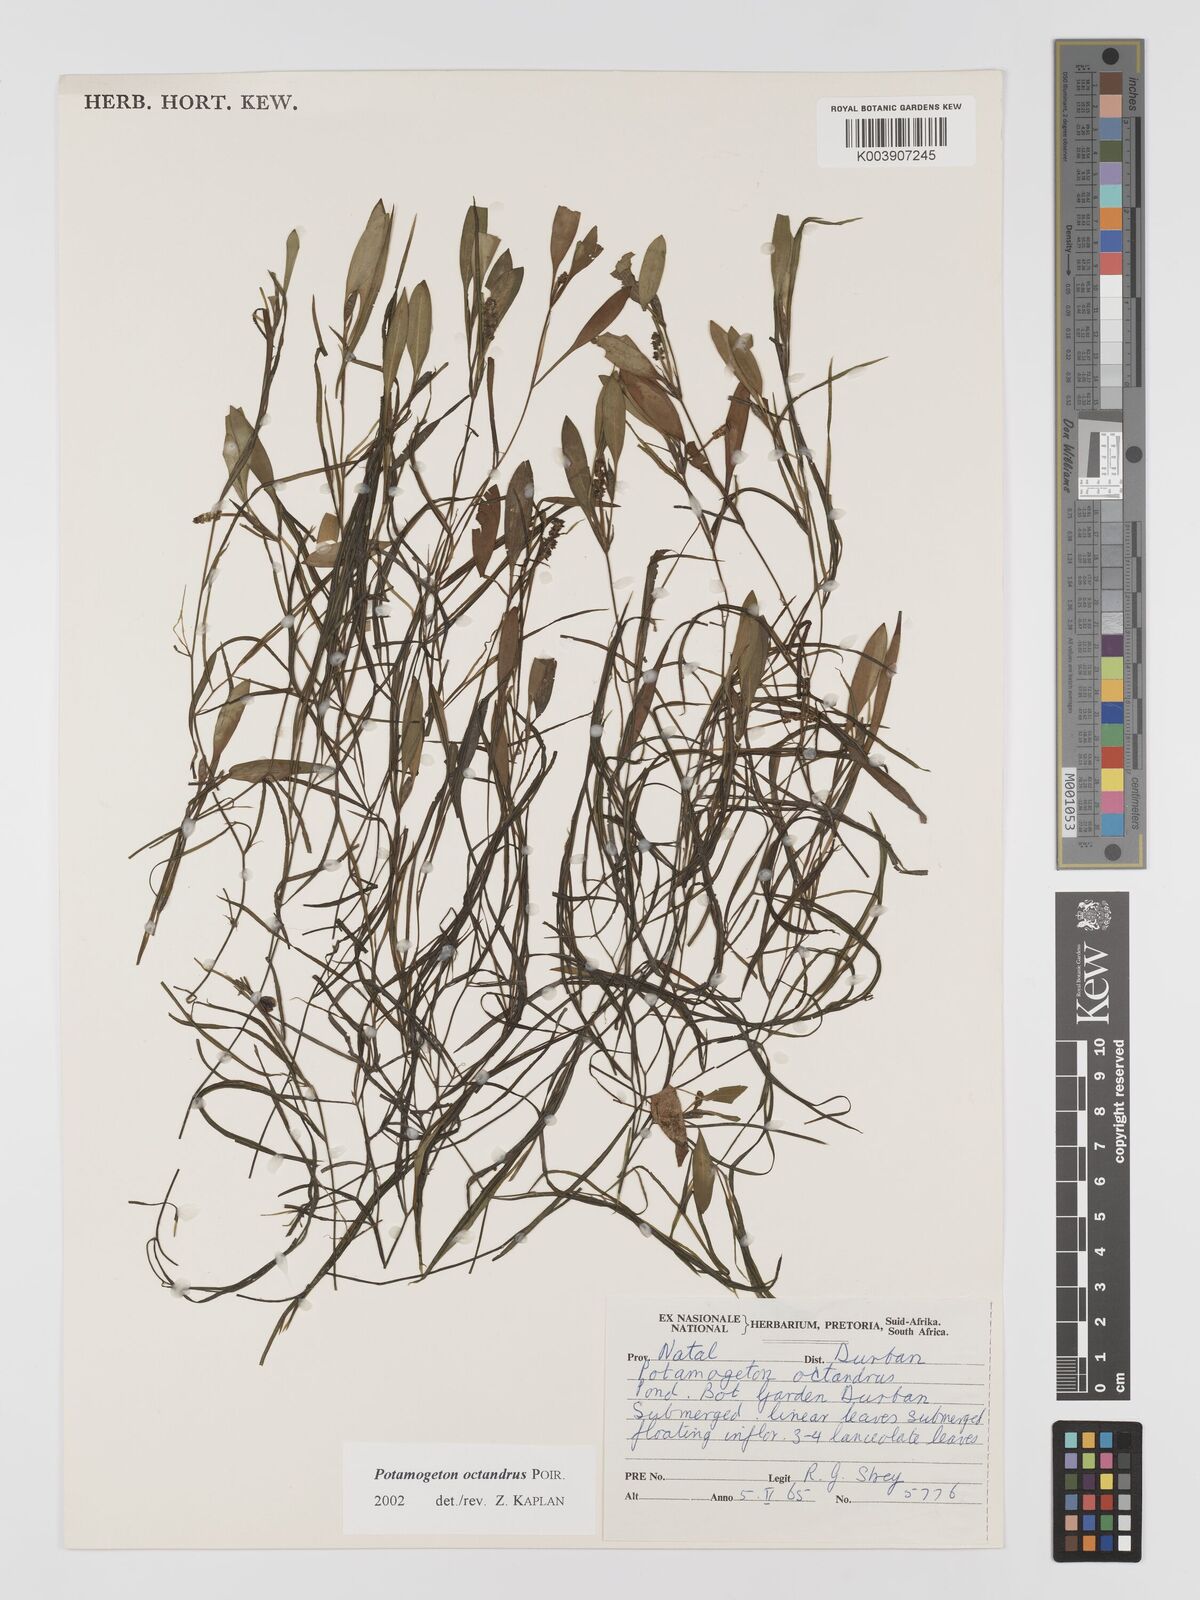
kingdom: Plantae
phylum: Tracheophyta
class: Liliopsida
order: Alismatales
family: Potamogetonaceae
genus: Potamogeton
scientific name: Potamogeton octandrus
